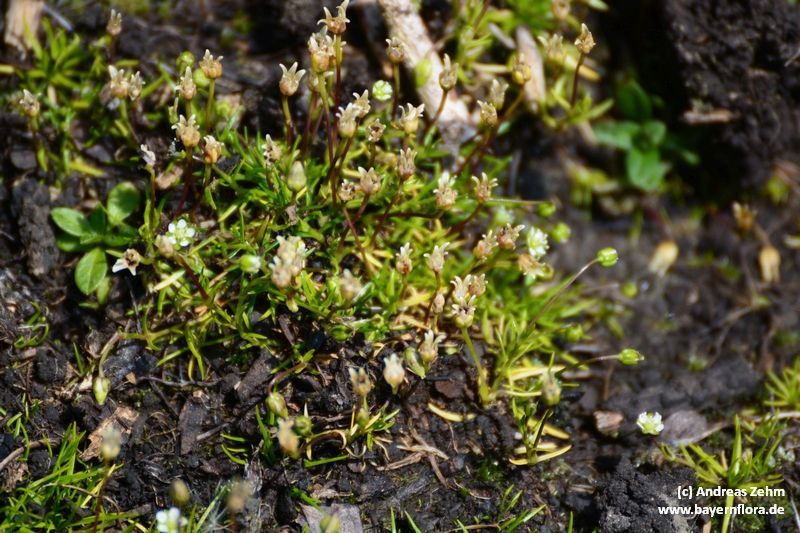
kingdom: Plantae
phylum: Tracheophyta
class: Magnoliopsida
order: Caryophyllales
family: Caryophyllaceae
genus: Sagina
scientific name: Sagina saginoides
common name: Alpine pearlwort
